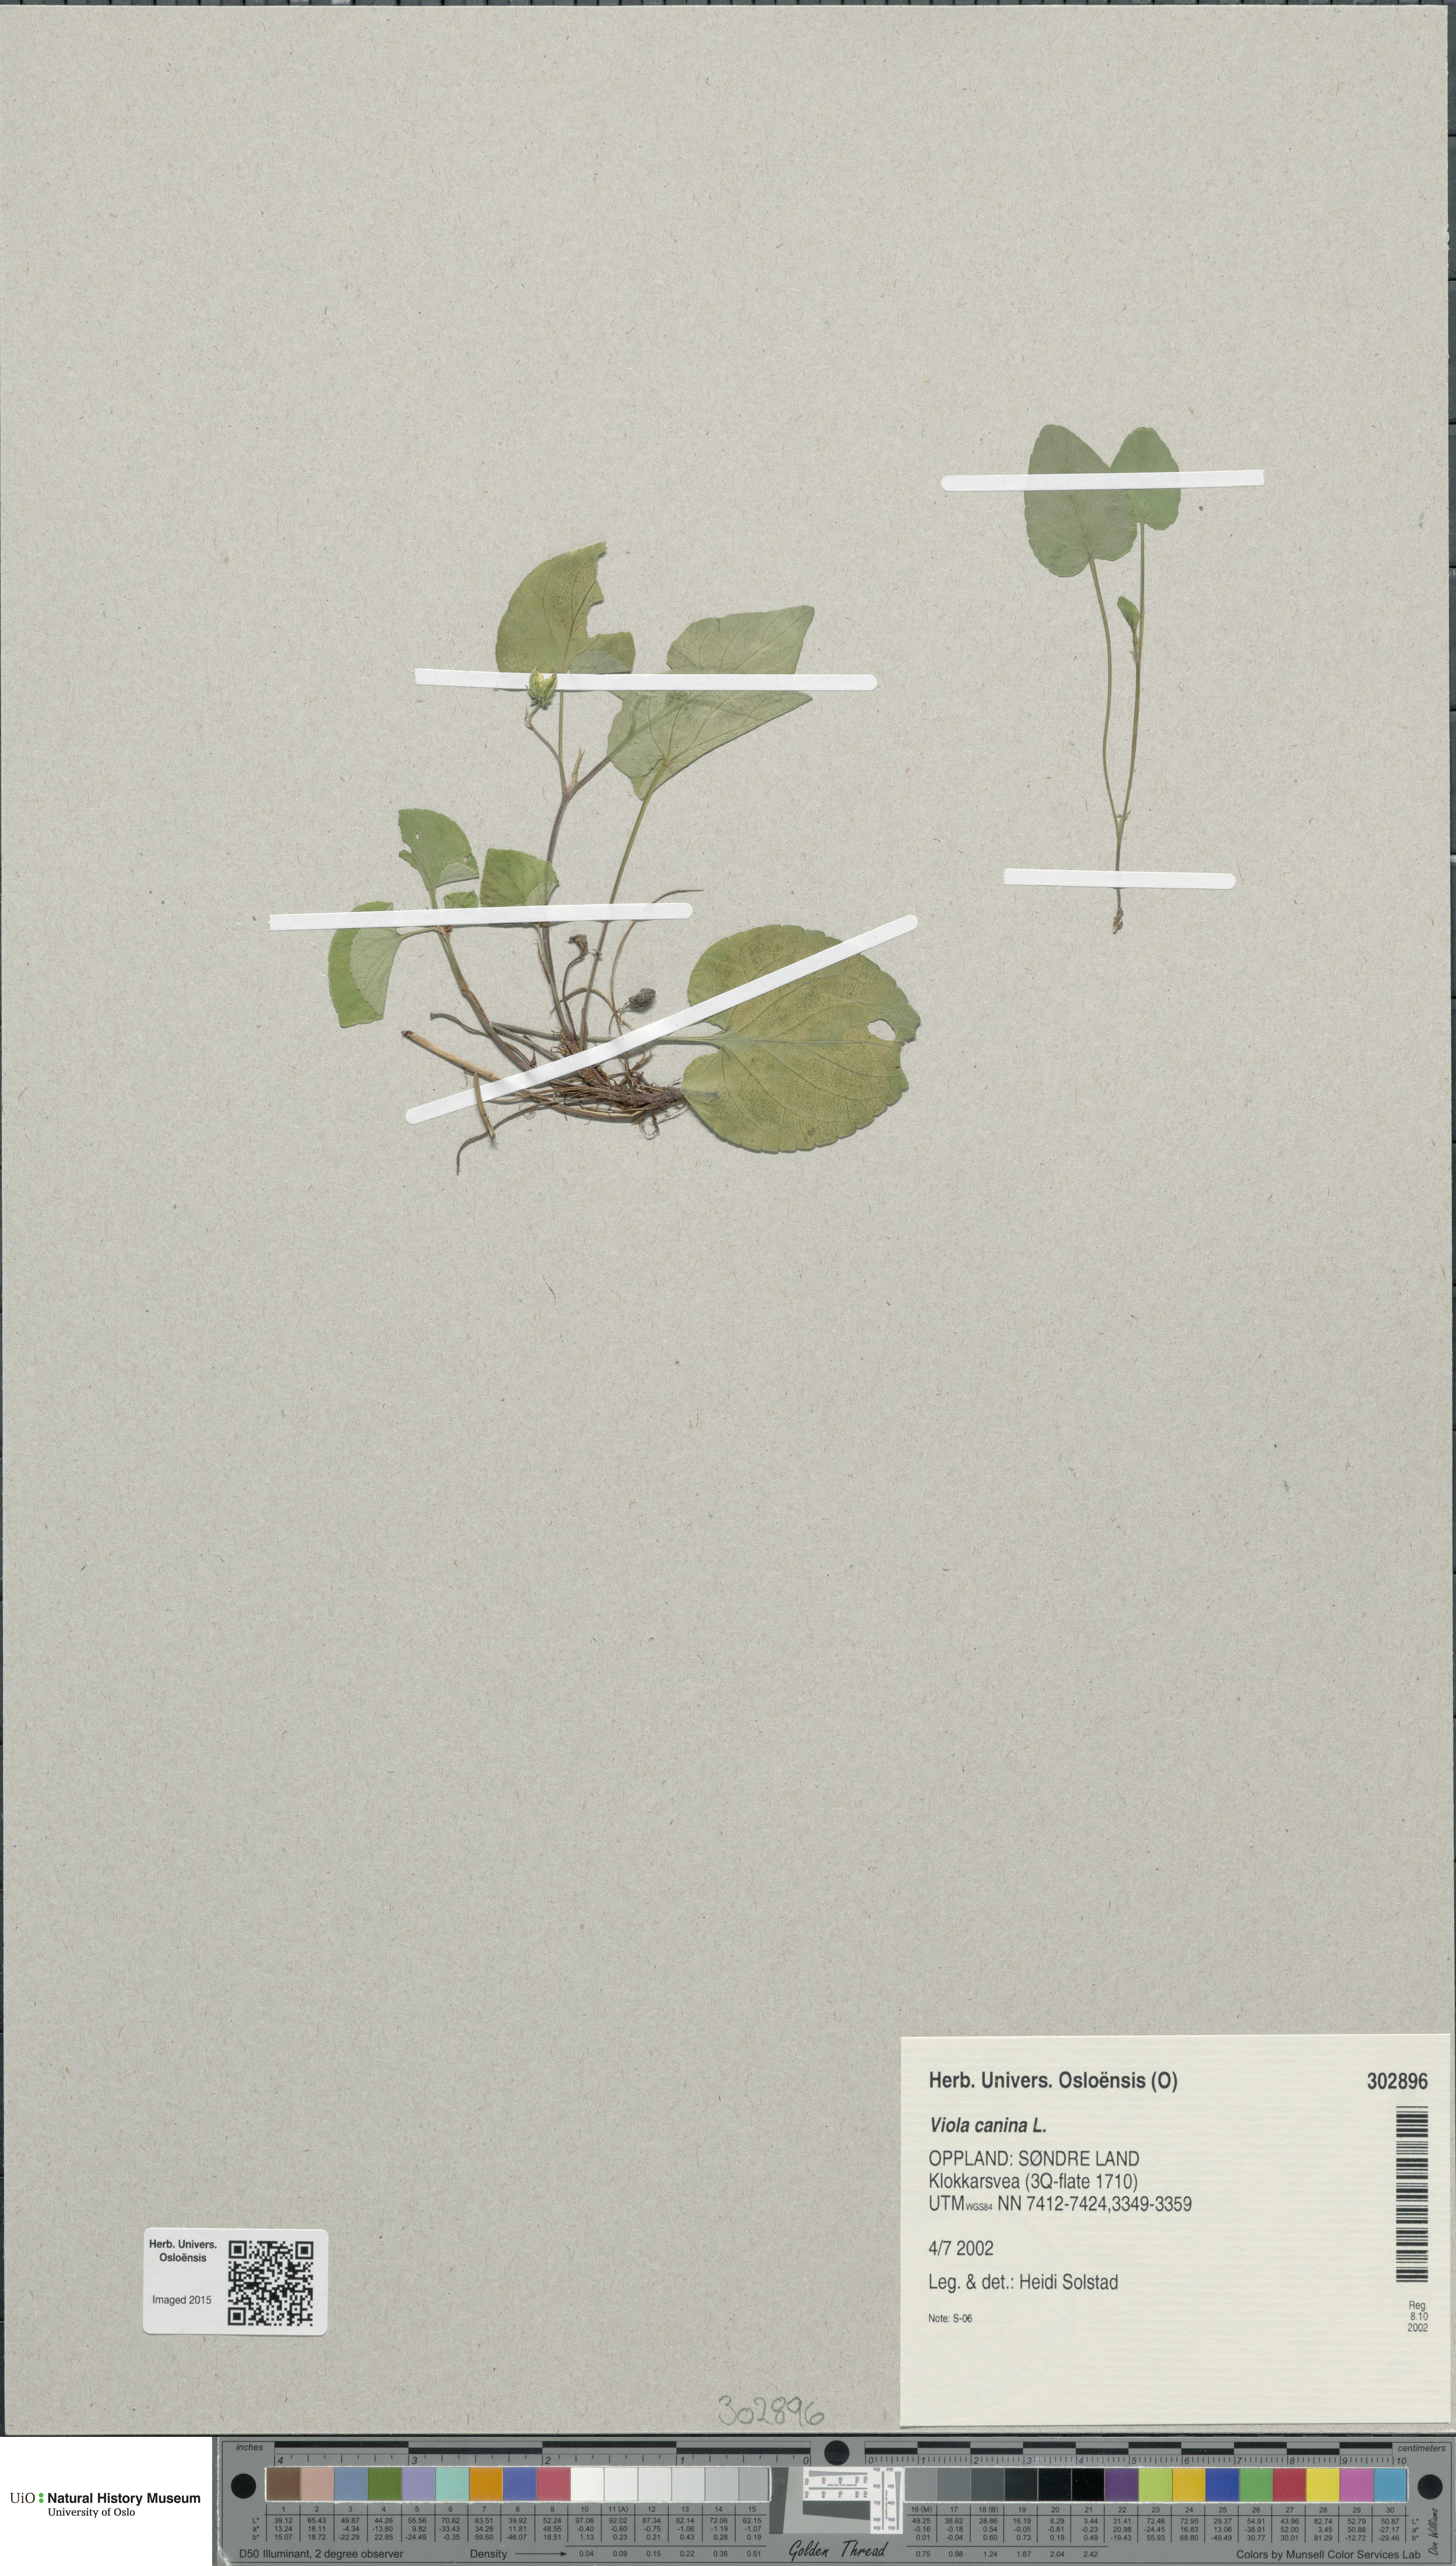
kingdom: Plantae
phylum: Tracheophyta
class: Magnoliopsida
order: Malpighiales
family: Violaceae
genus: Viola
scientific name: Viola canina
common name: Heath dog-violet
